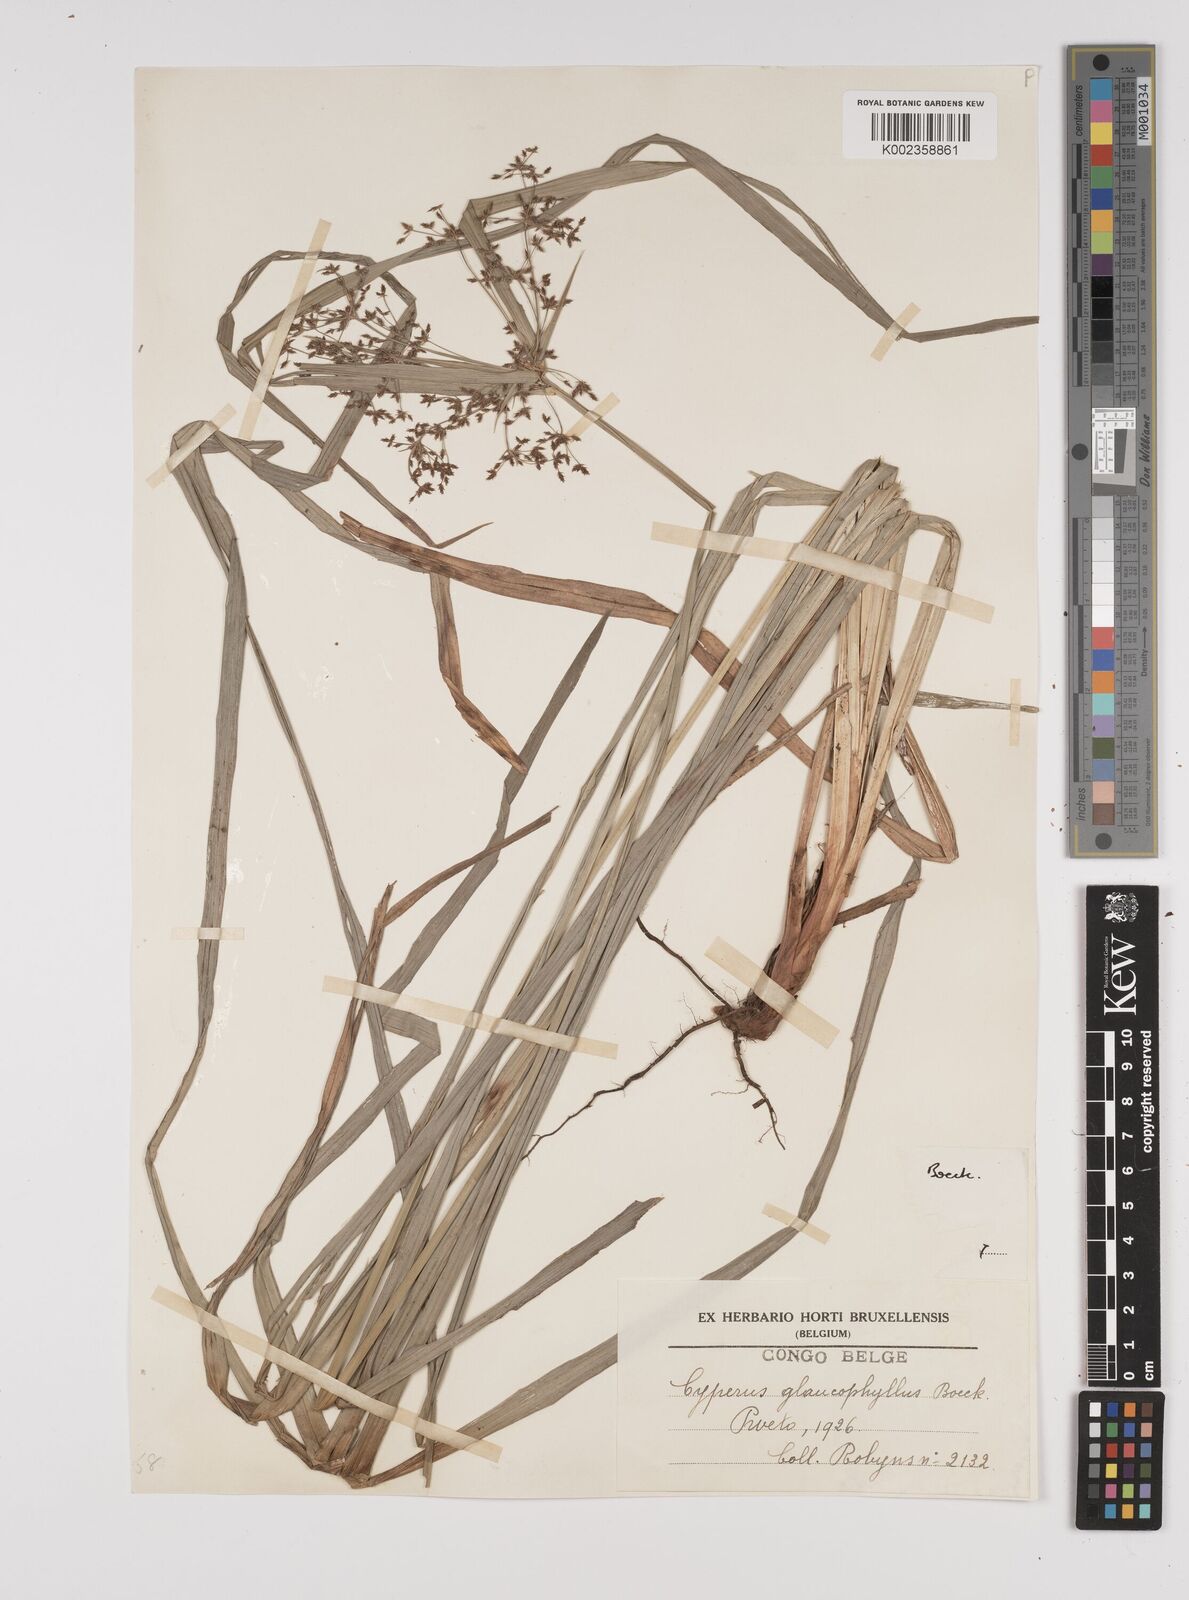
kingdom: Plantae
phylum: Tracheophyta
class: Liliopsida
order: Poales
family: Cyperaceae
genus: Cyperus
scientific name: Cyperus glaucophyllus
